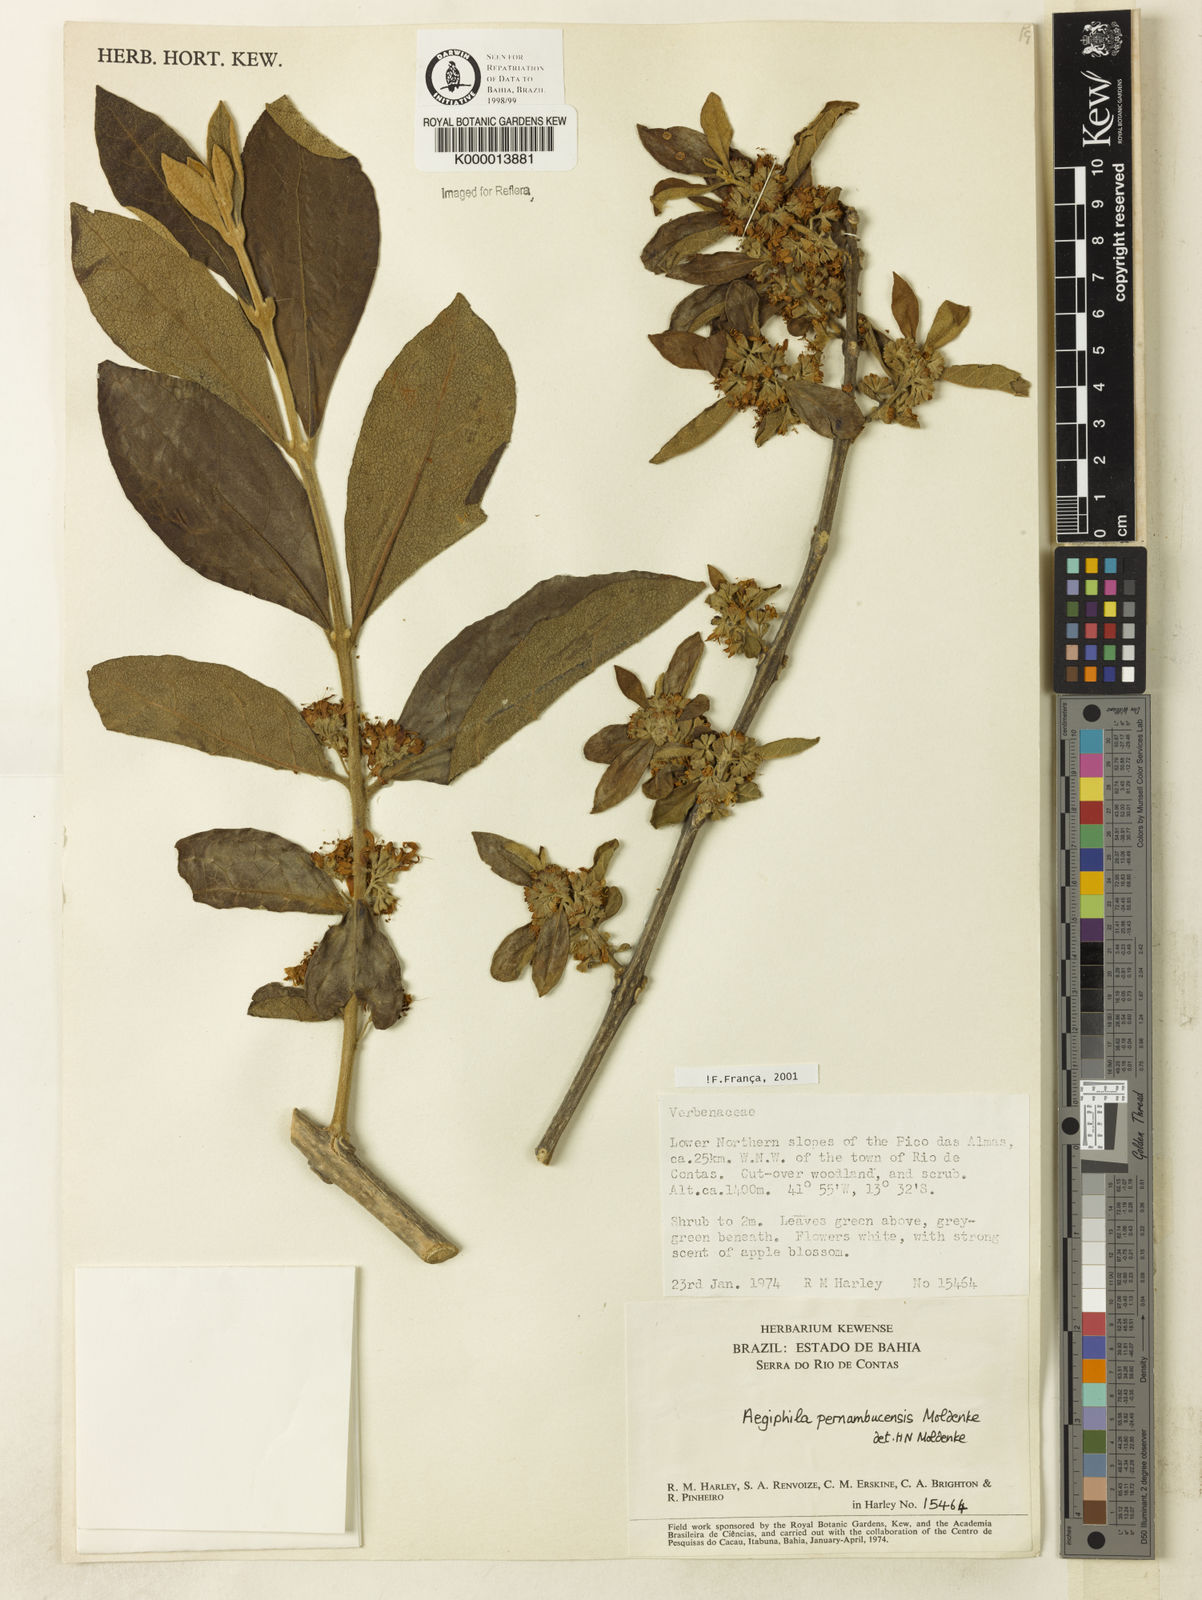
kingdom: Plantae
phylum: Tracheophyta
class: Magnoliopsida
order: Lamiales
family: Lamiaceae
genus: Aegiphila
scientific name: Aegiphila pernambucensis
